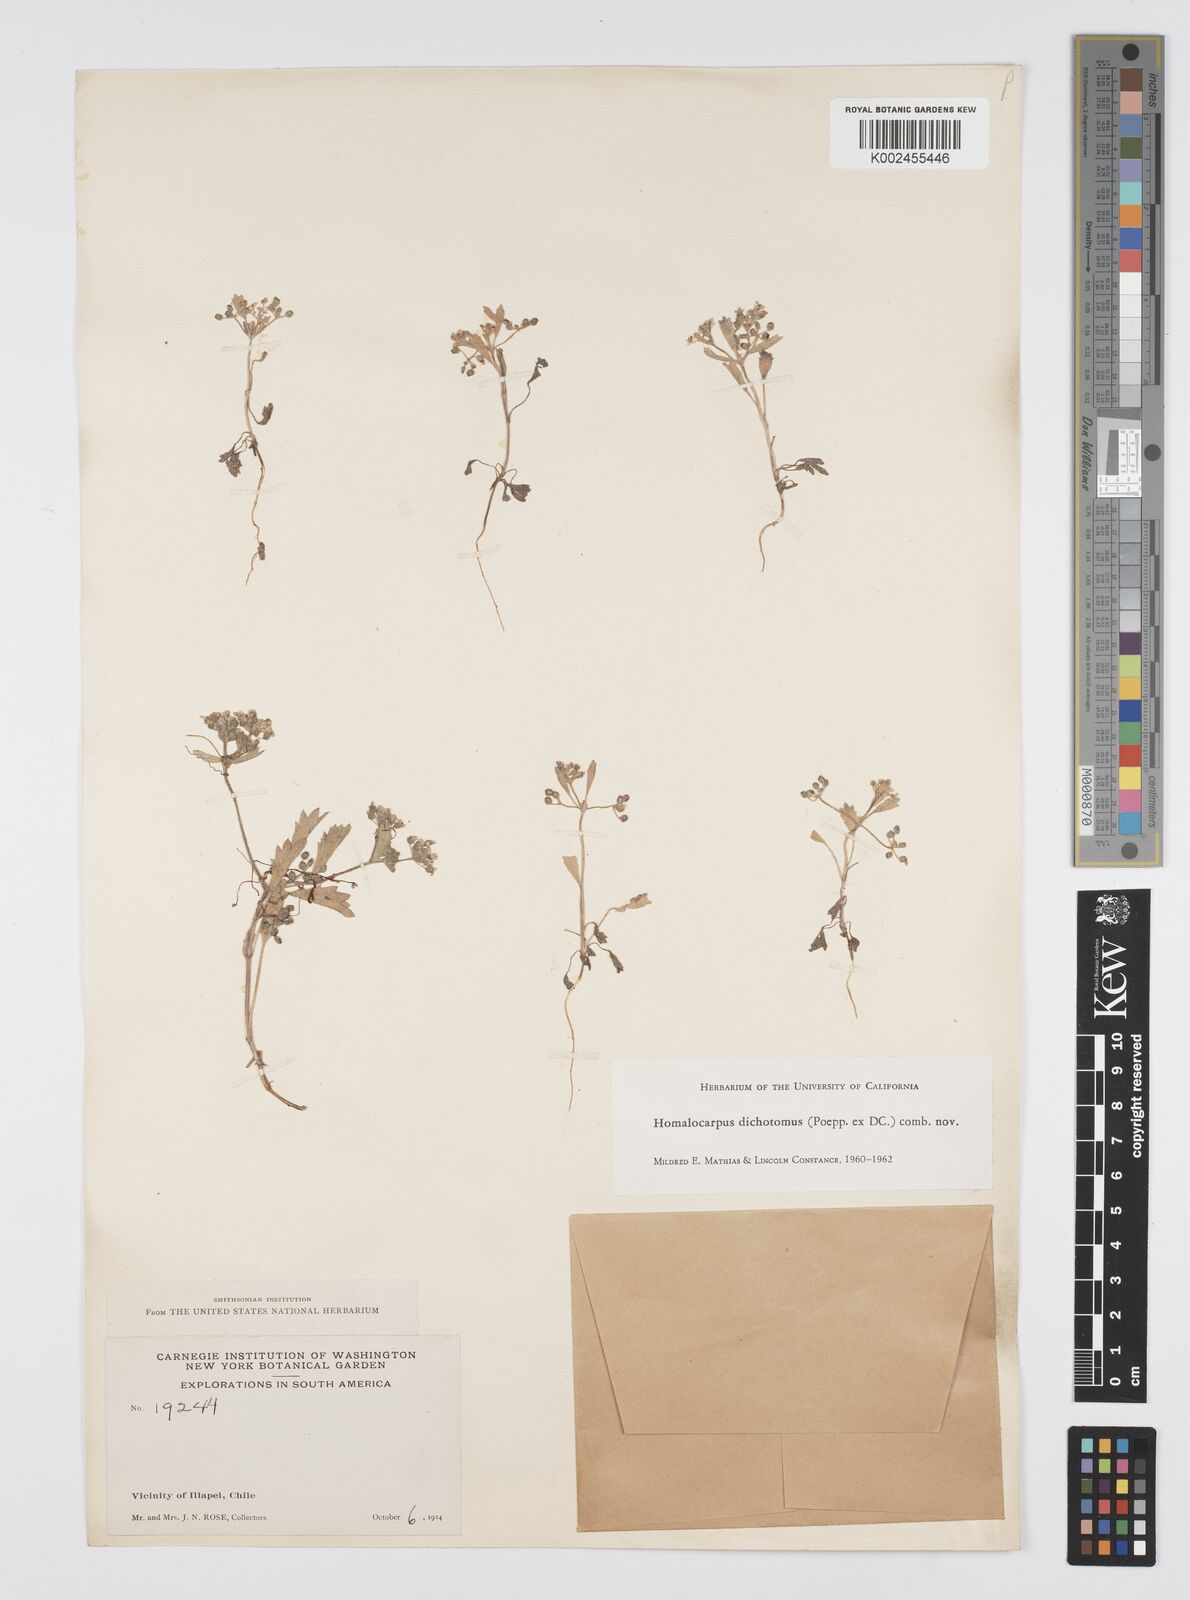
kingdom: Plantae
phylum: Tracheophyta
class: Magnoliopsida
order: Apiales
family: Apiaceae
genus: Homalocarpus
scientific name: Homalocarpus dichotomus
